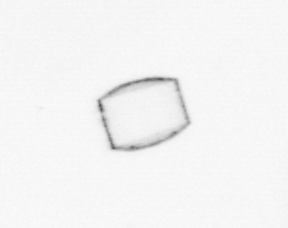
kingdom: Chromista
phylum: Ochrophyta
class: Bacillariophyceae
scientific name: Bacillariophyceae
